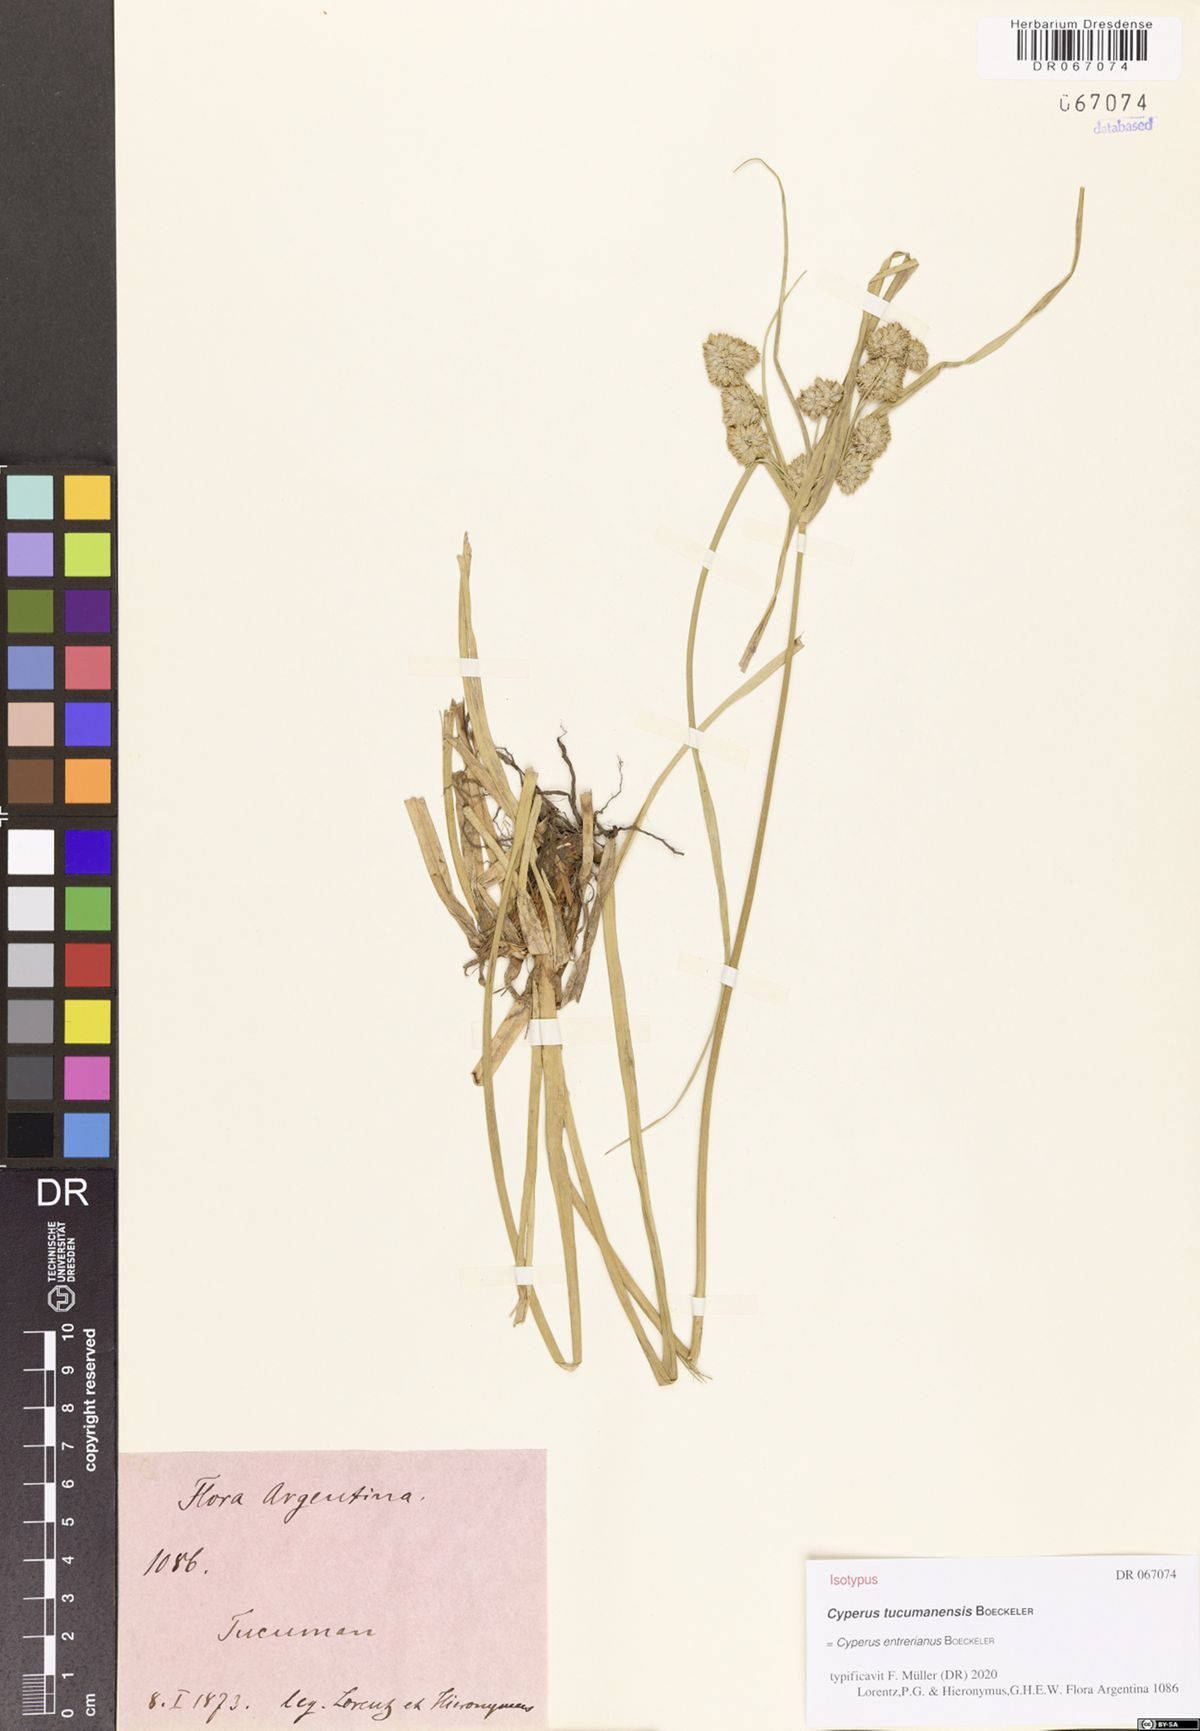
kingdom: Plantae
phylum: Tracheophyta
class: Liliopsida
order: Poales
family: Cyperaceae
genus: Cyperus
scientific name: Cyperus entrerianus
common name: Woodrush flatsedge
